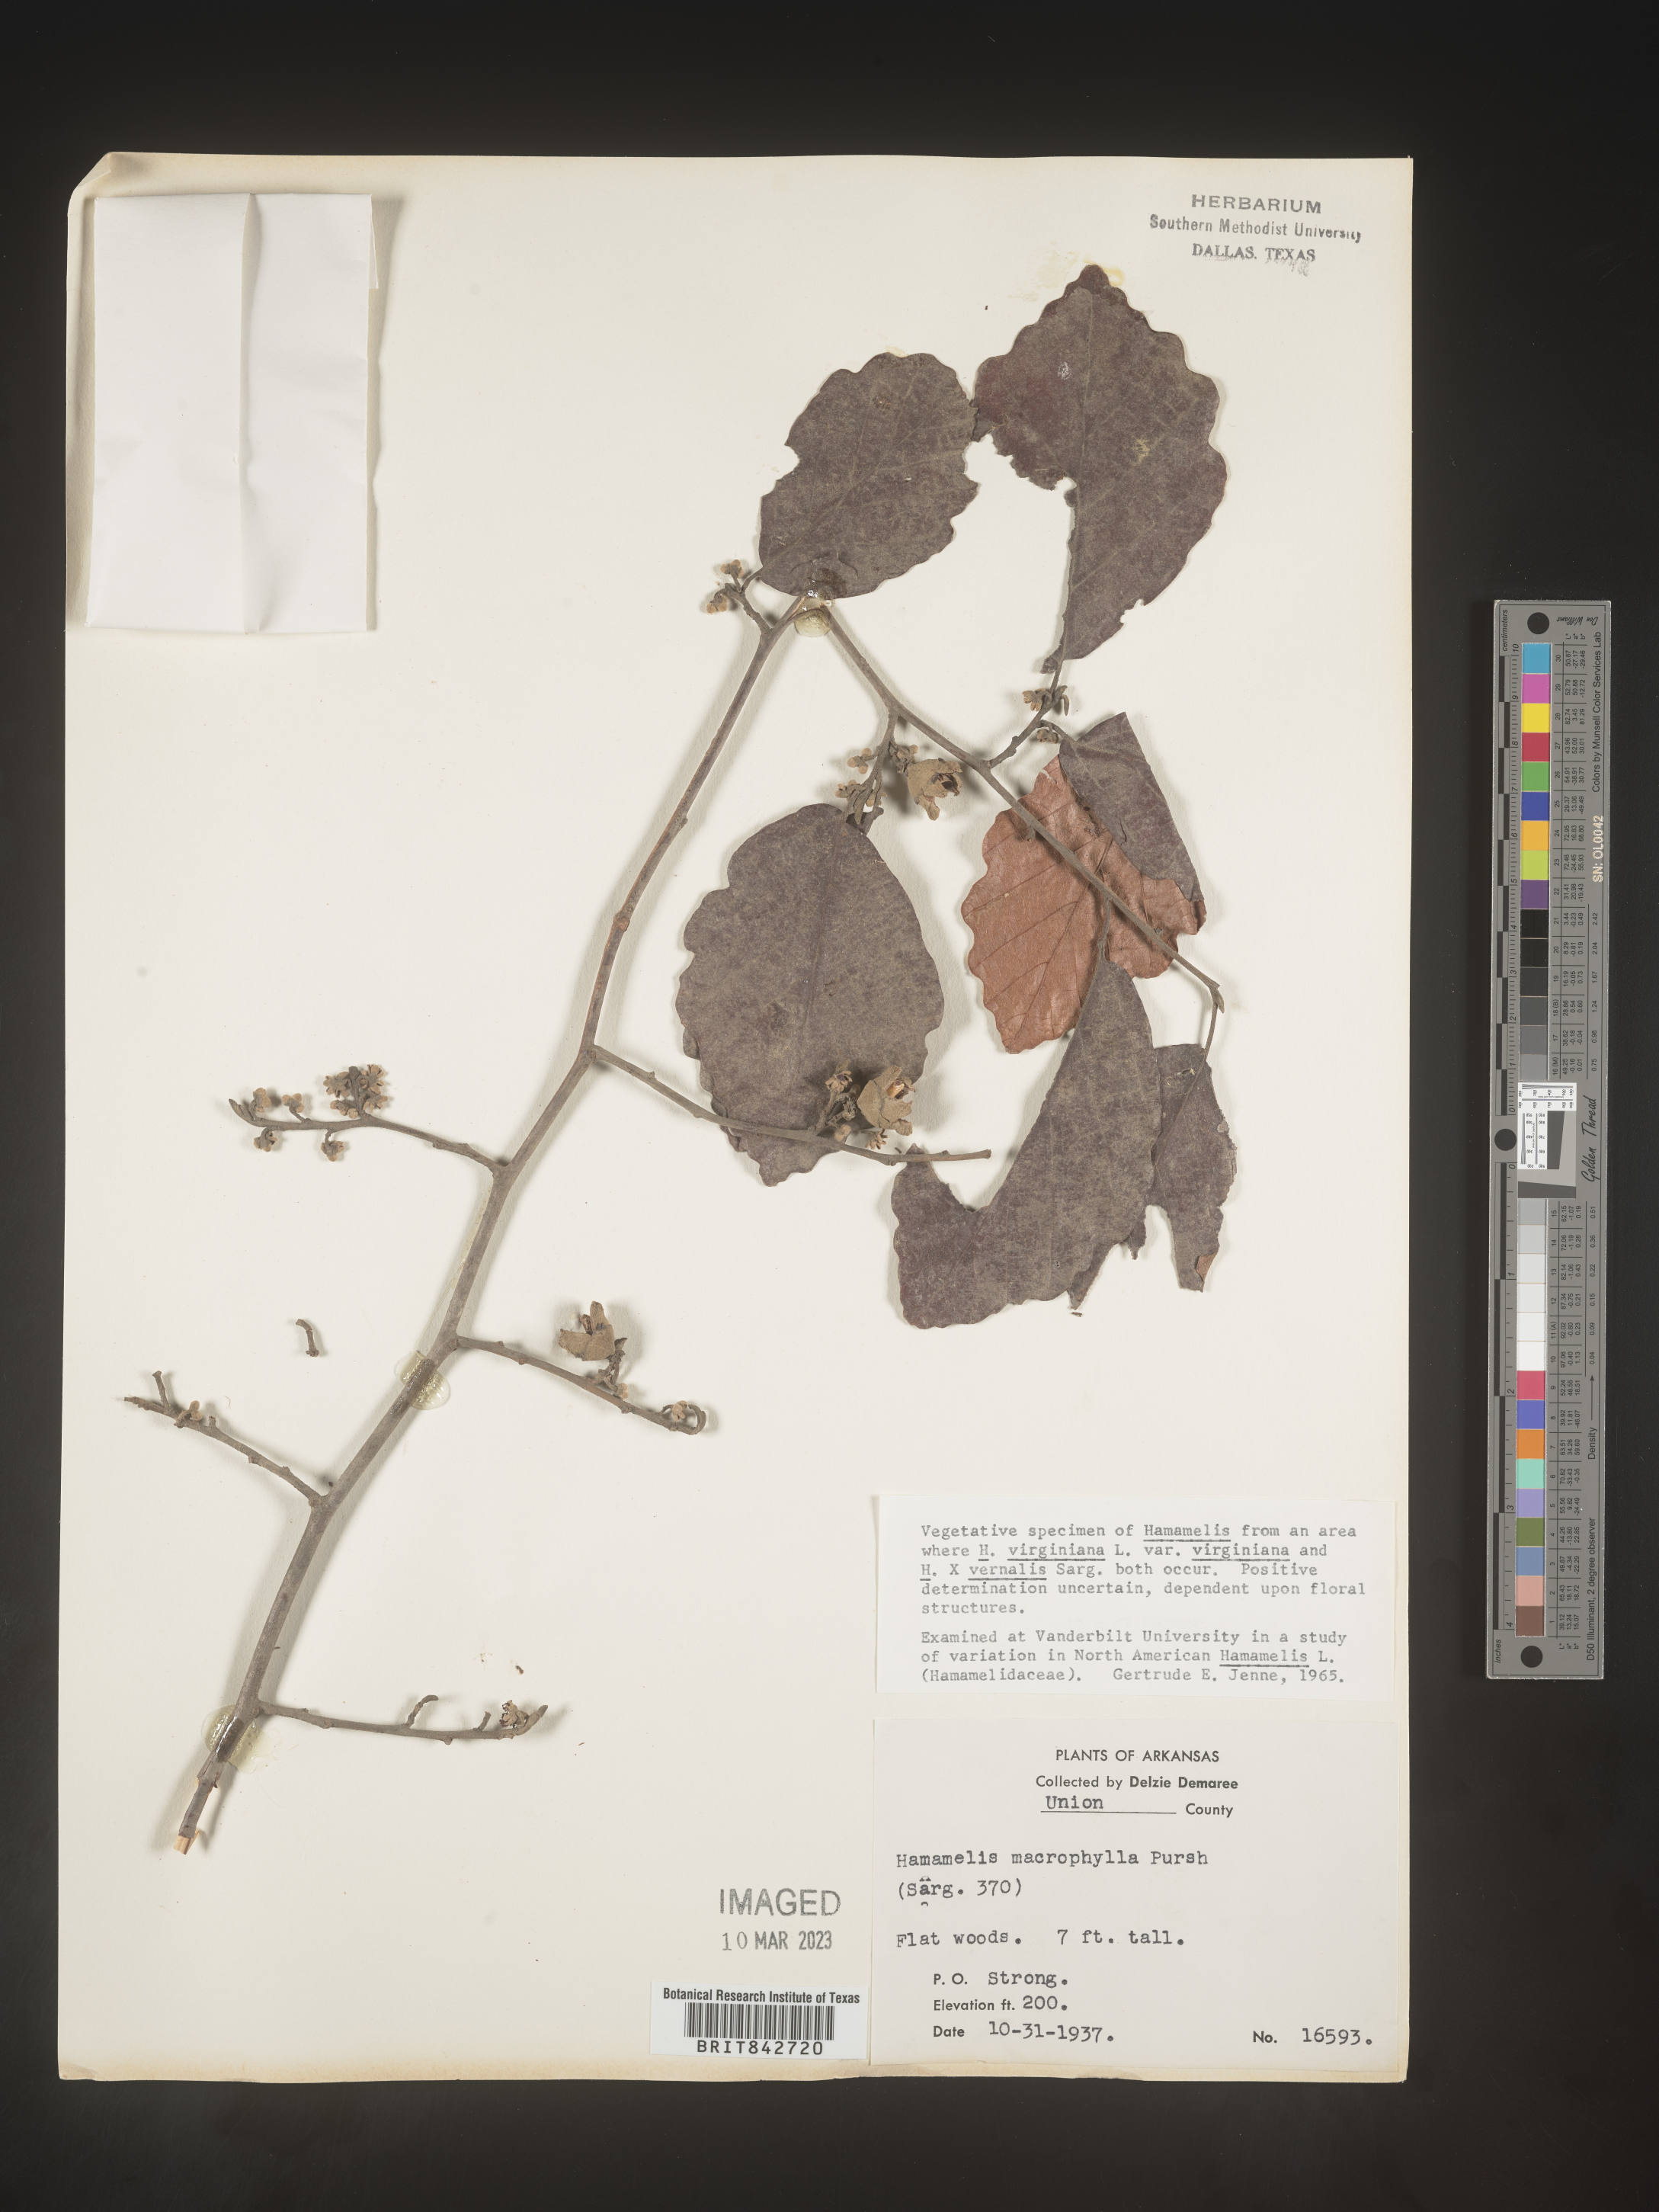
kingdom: Plantae
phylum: Tracheophyta
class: Magnoliopsida
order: Saxifragales
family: Hamamelidaceae
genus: Hamamelis
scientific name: Hamamelis virginiana
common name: Witch-hazel
